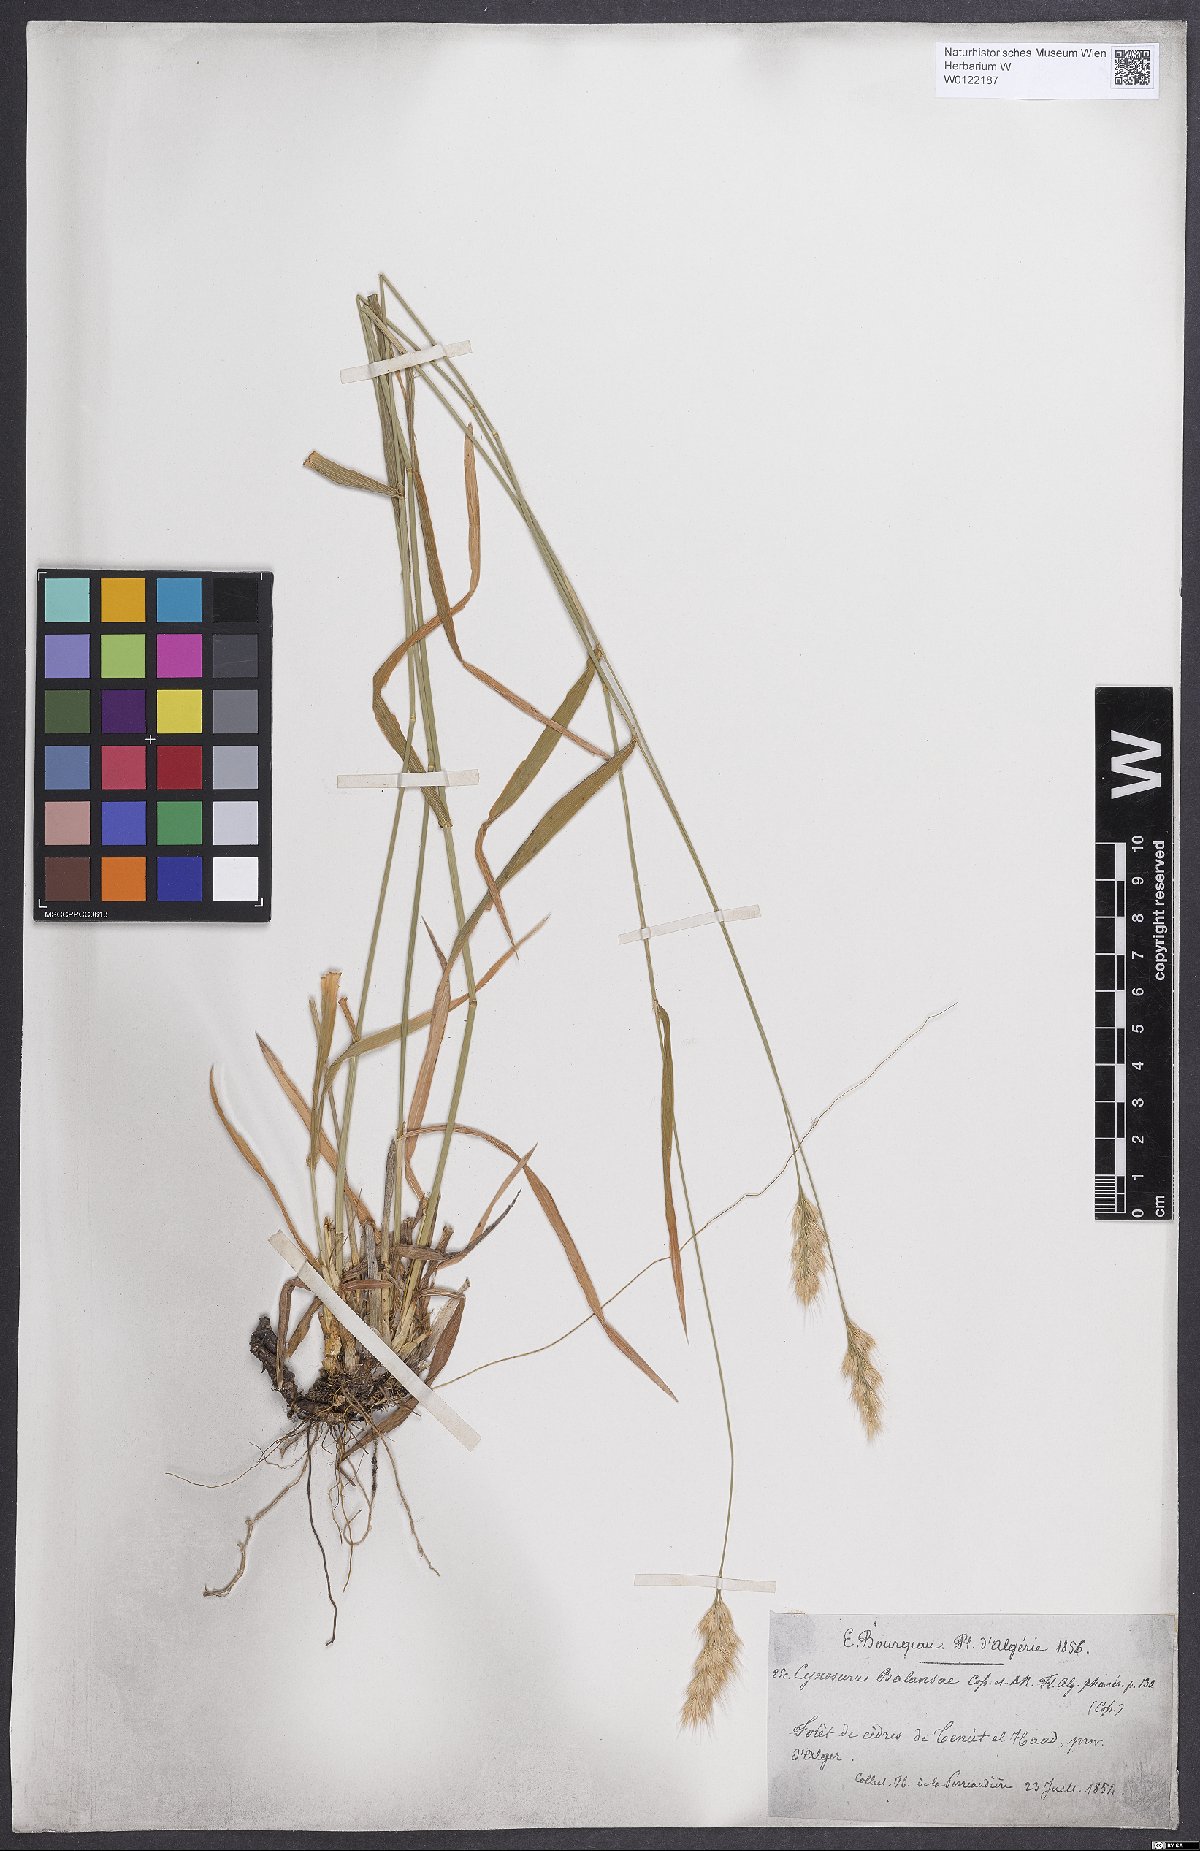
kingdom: Plantae
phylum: Tracheophyta
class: Liliopsida
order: Poales
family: Poaceae
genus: Cynosurus
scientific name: Cynosurus balansae
